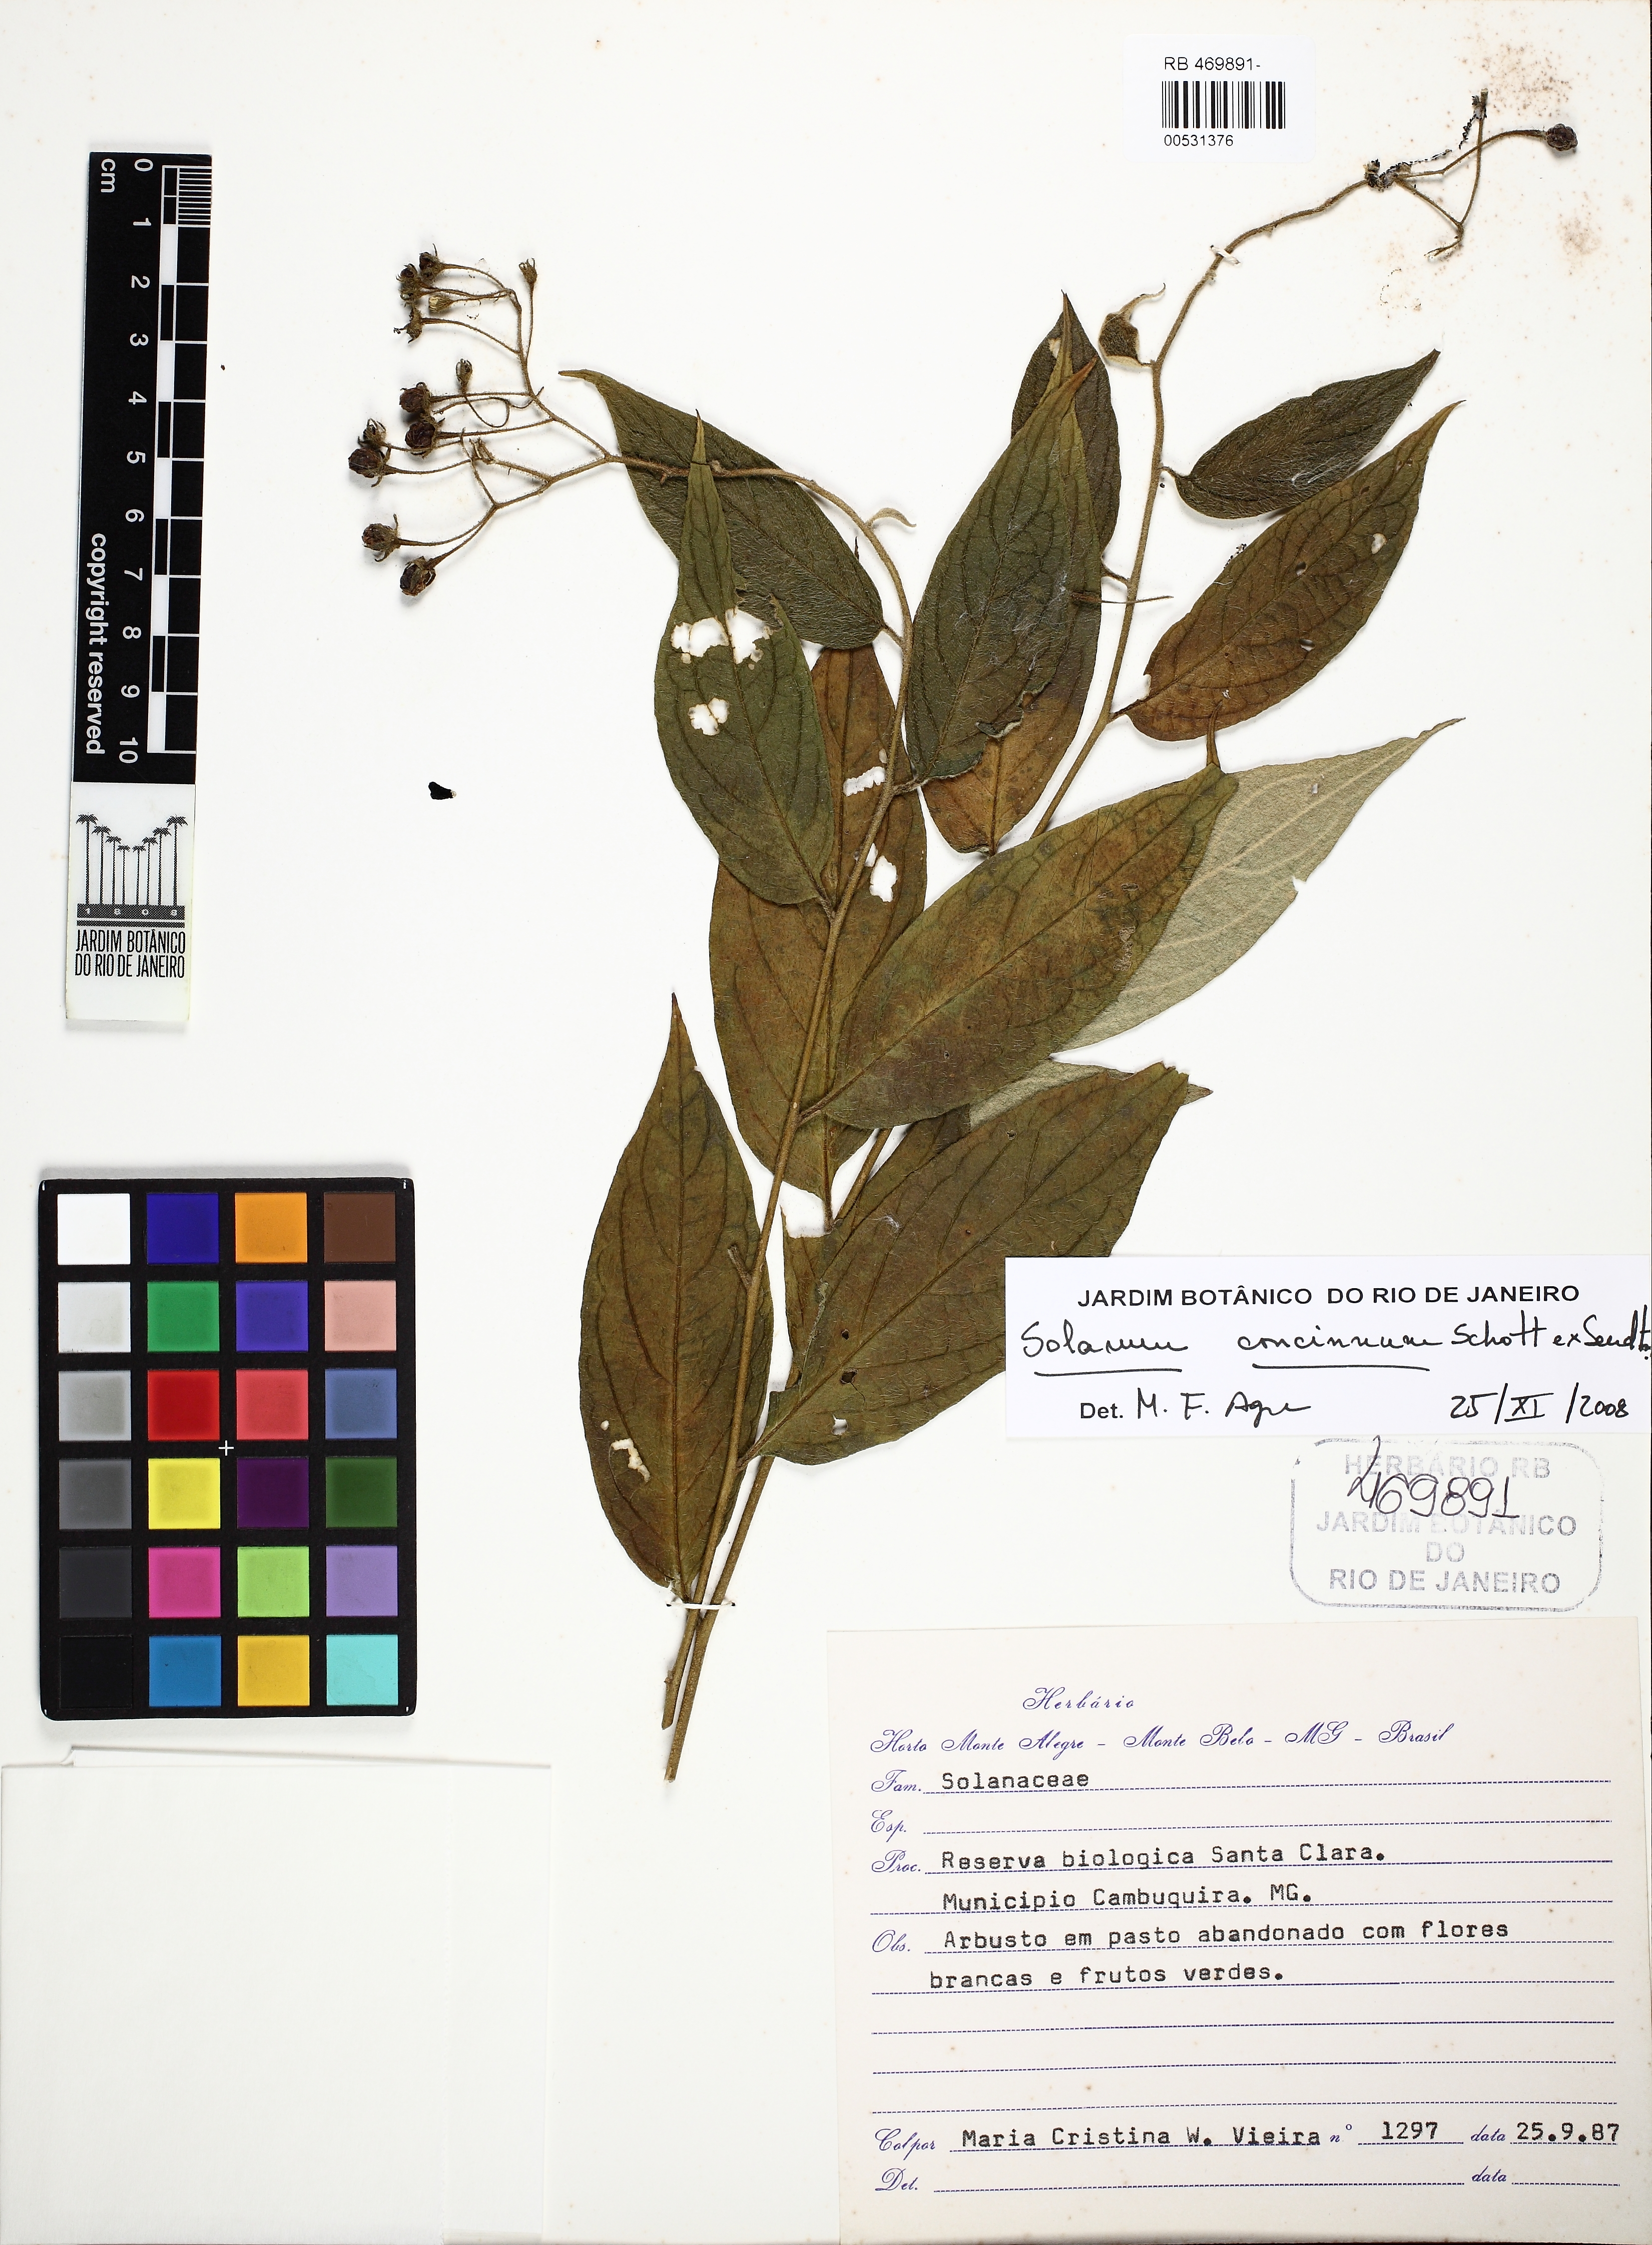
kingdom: Plantae
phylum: Tracheophyta
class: Magnoliopsida
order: Solanales
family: Solanaceae
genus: Solanum
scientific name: Solanum concinnum
